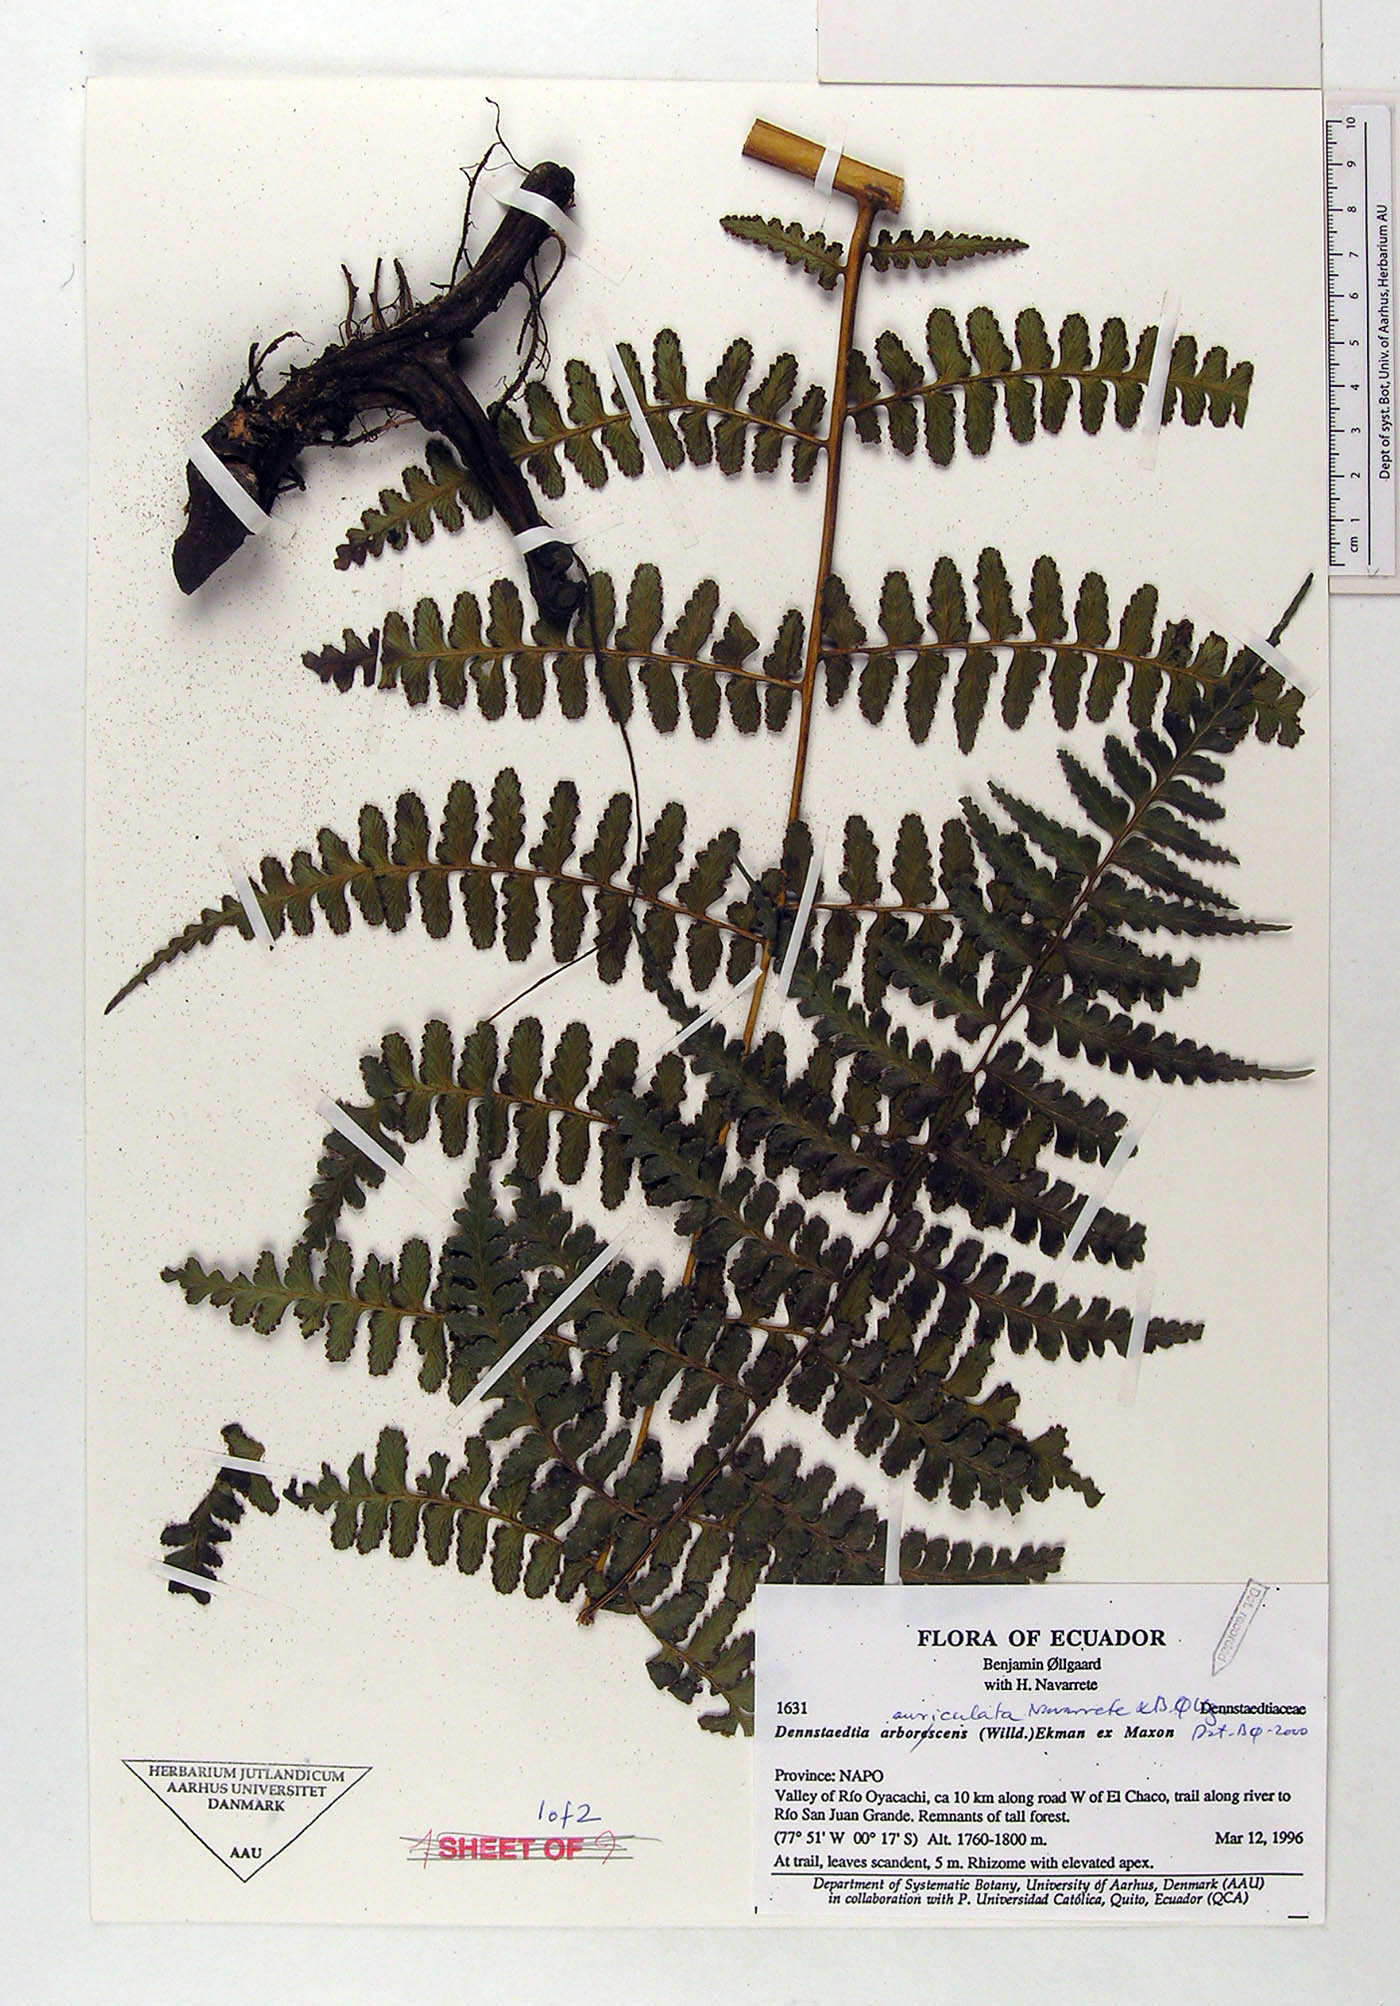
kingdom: Plantae
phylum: Tracheophyta
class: Polypodiopsida
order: Polypodiales
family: Dennstaedtiaceae
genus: Dennstaedtia
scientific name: Dennstaedtia auriculata
